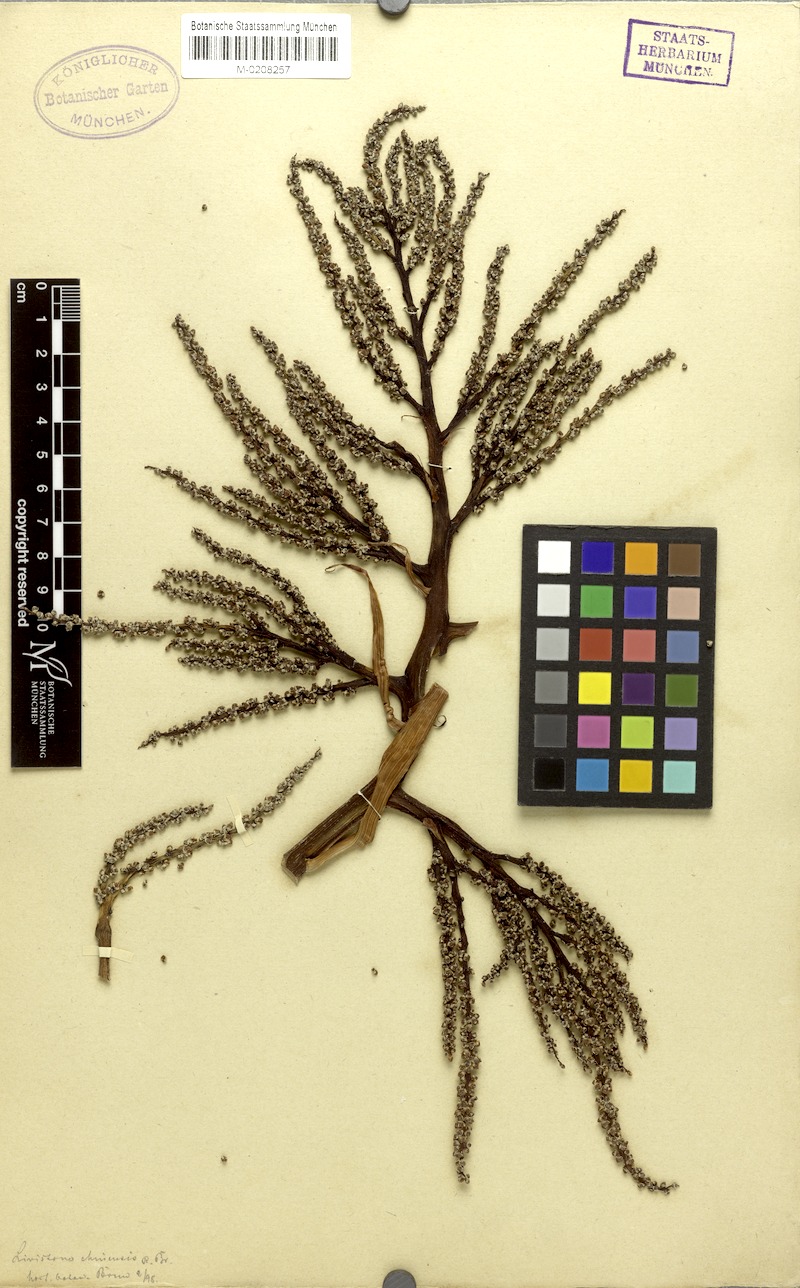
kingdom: Plantae
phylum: Tracheophyta
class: Liliopsida
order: Arecales
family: Arecaceae
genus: Livistona
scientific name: Livistona chinensis
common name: Fountain palm
